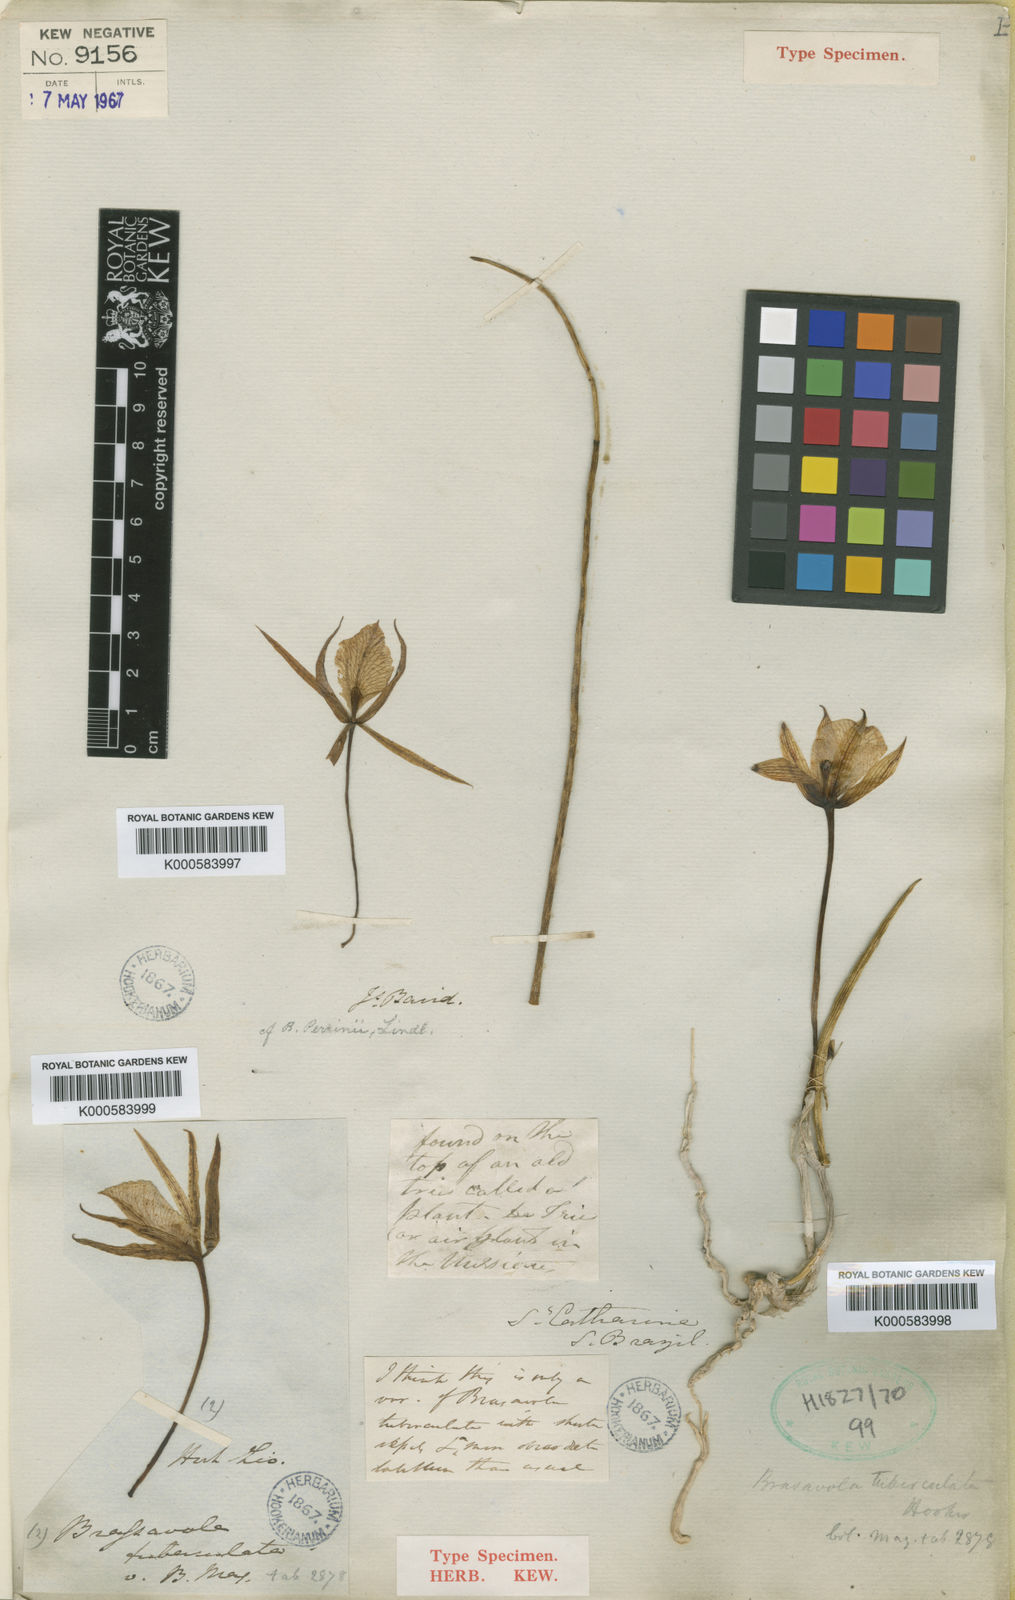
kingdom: Plantae
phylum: Tracheophyta
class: Liliopsida
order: Asparagales
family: Orchidaceae
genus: Brassavola
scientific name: Brassavola tuberculata
